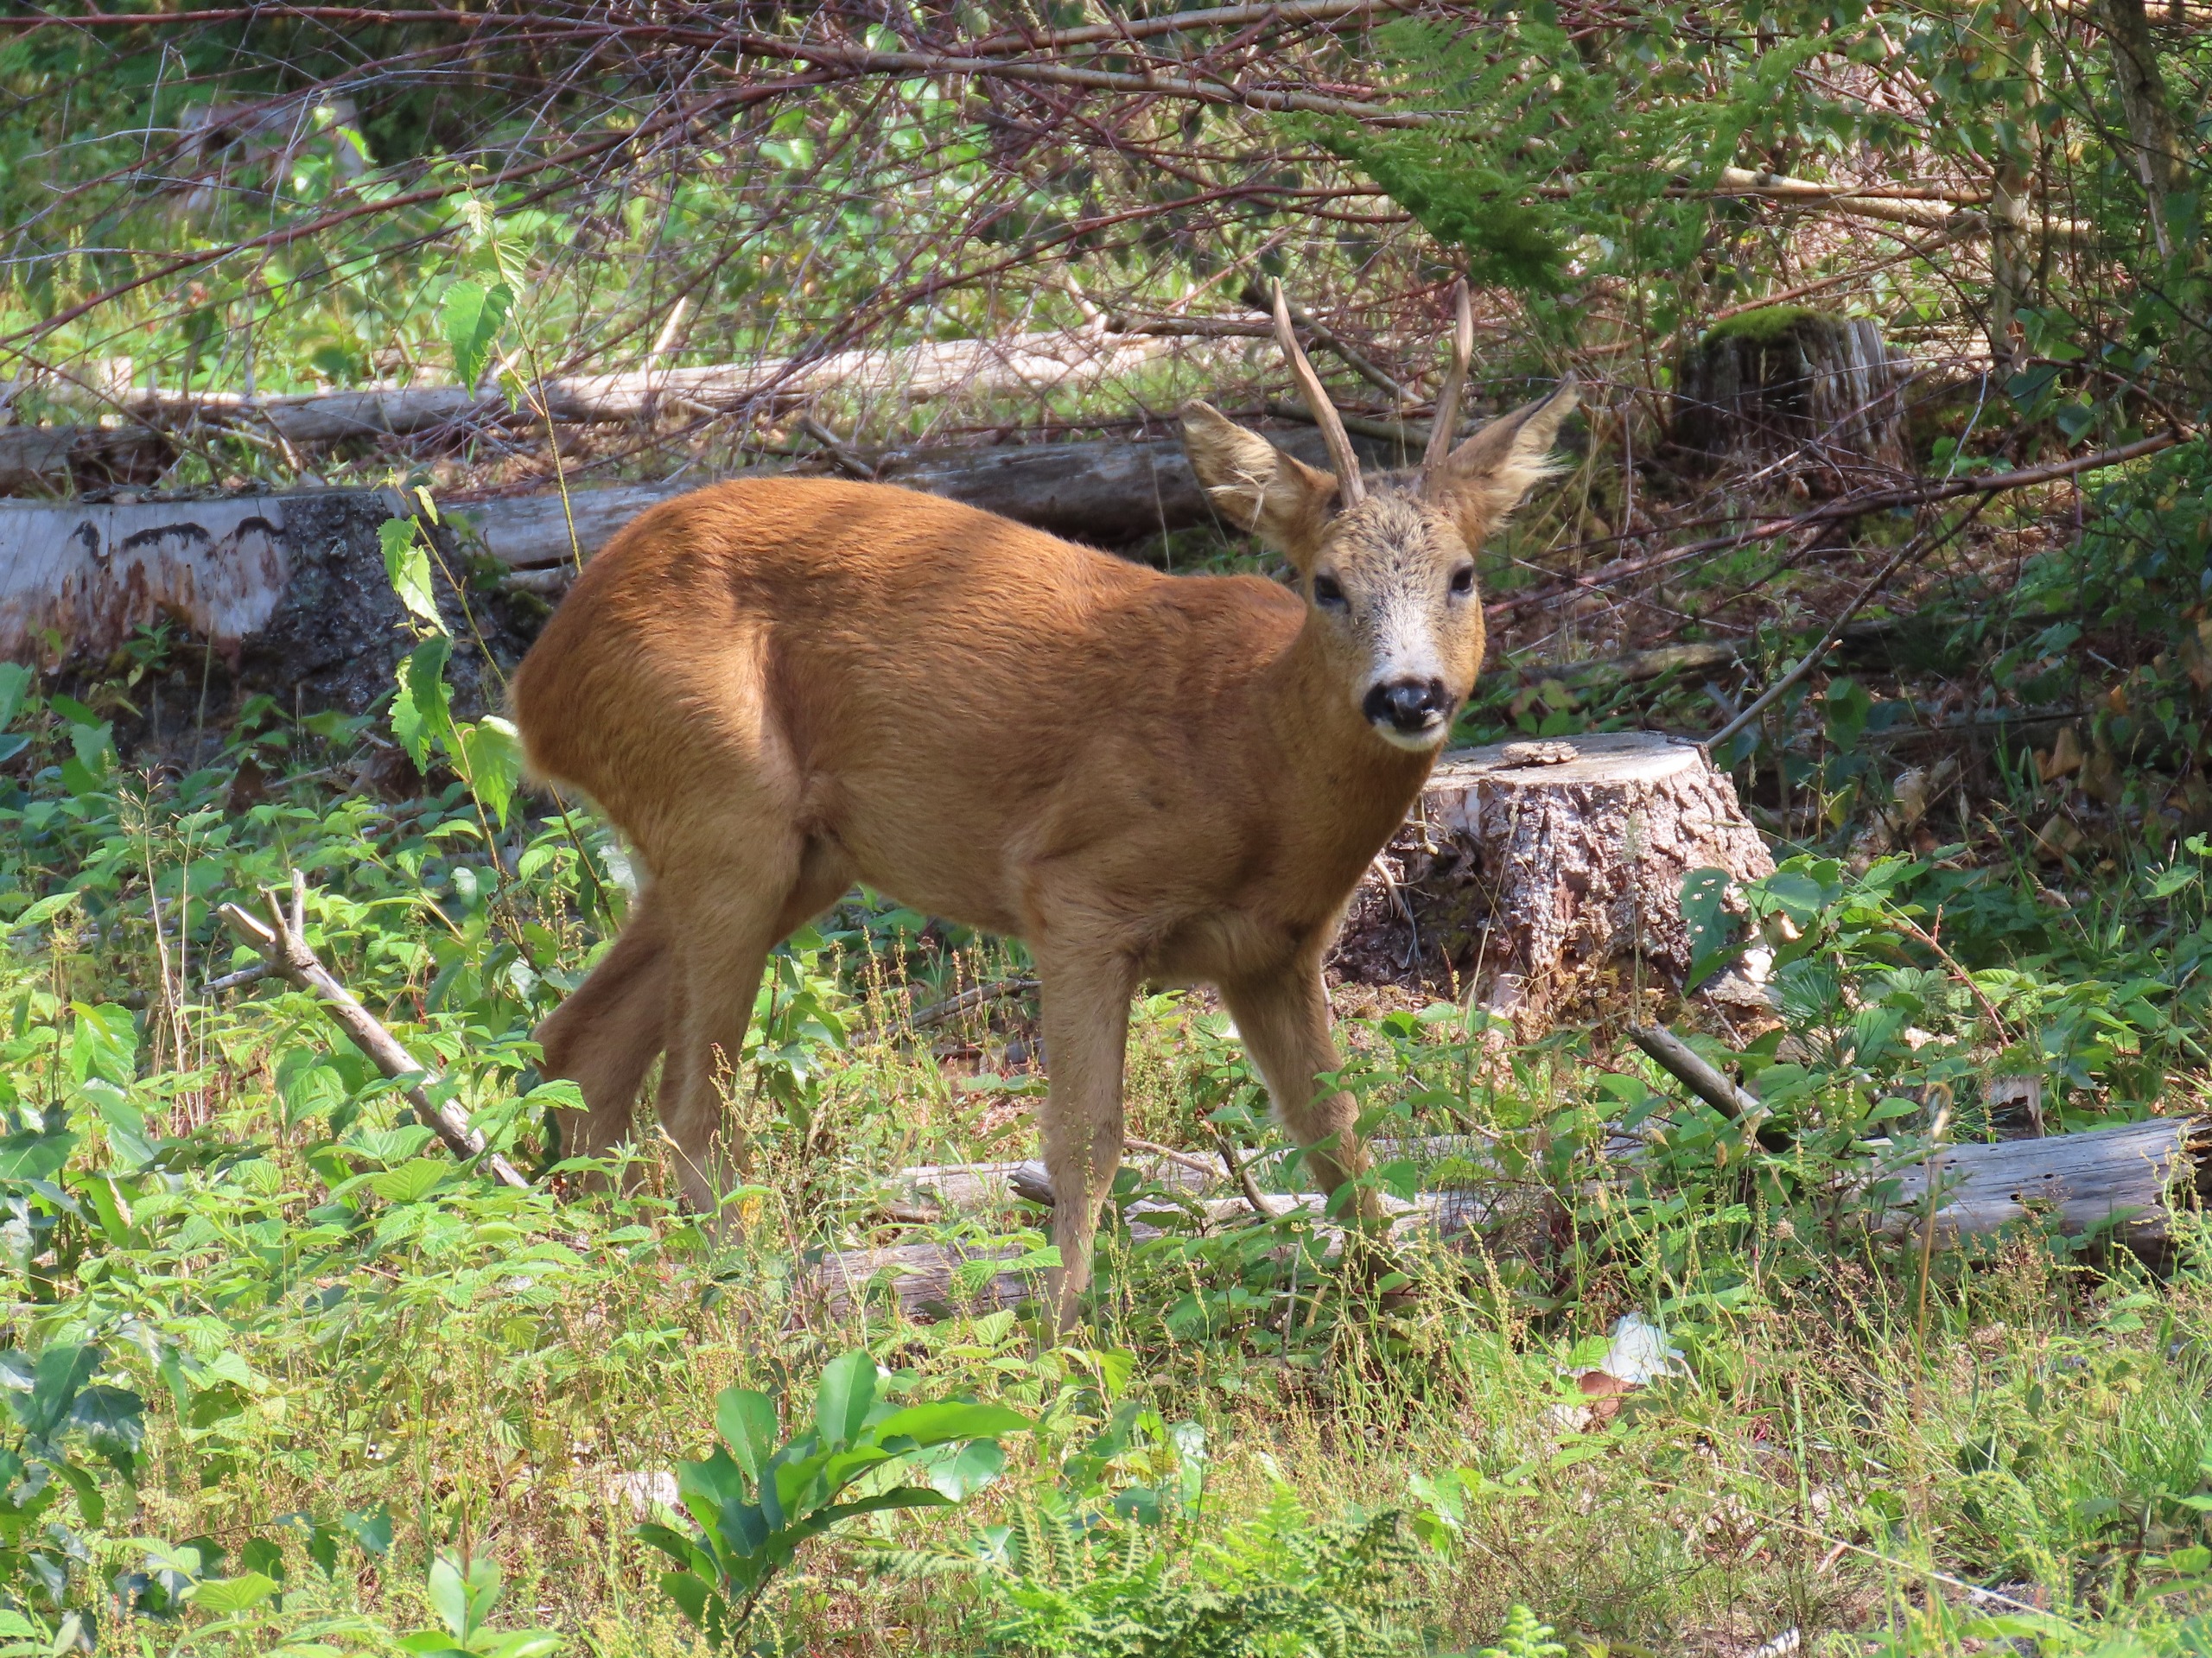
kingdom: Animalia
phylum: Chordata
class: Mammalia
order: Artiodactyla
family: Cervidae
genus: Capreolus
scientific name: Capreolus capreolus
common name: Rådyr
